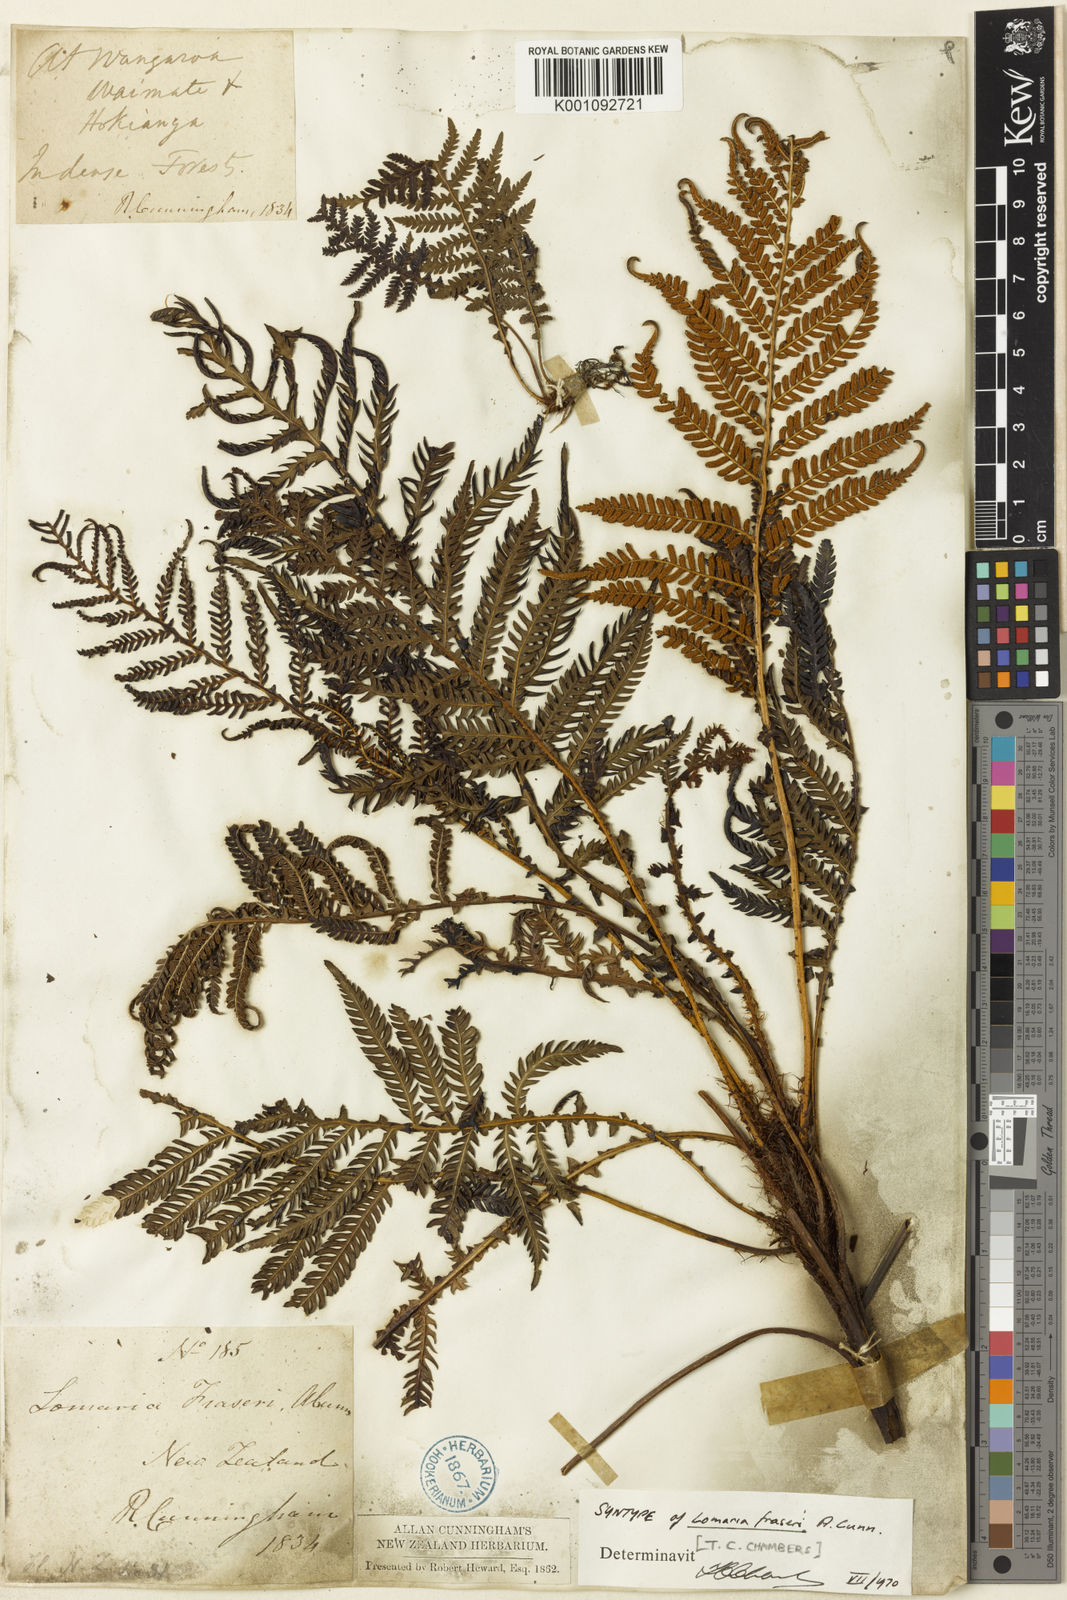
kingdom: Plantae
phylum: Tracheophyta
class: Polypodiopsida
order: Polypodiales
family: Blechnaceae
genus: Diploblechnum
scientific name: Diploblechnum fraseri
